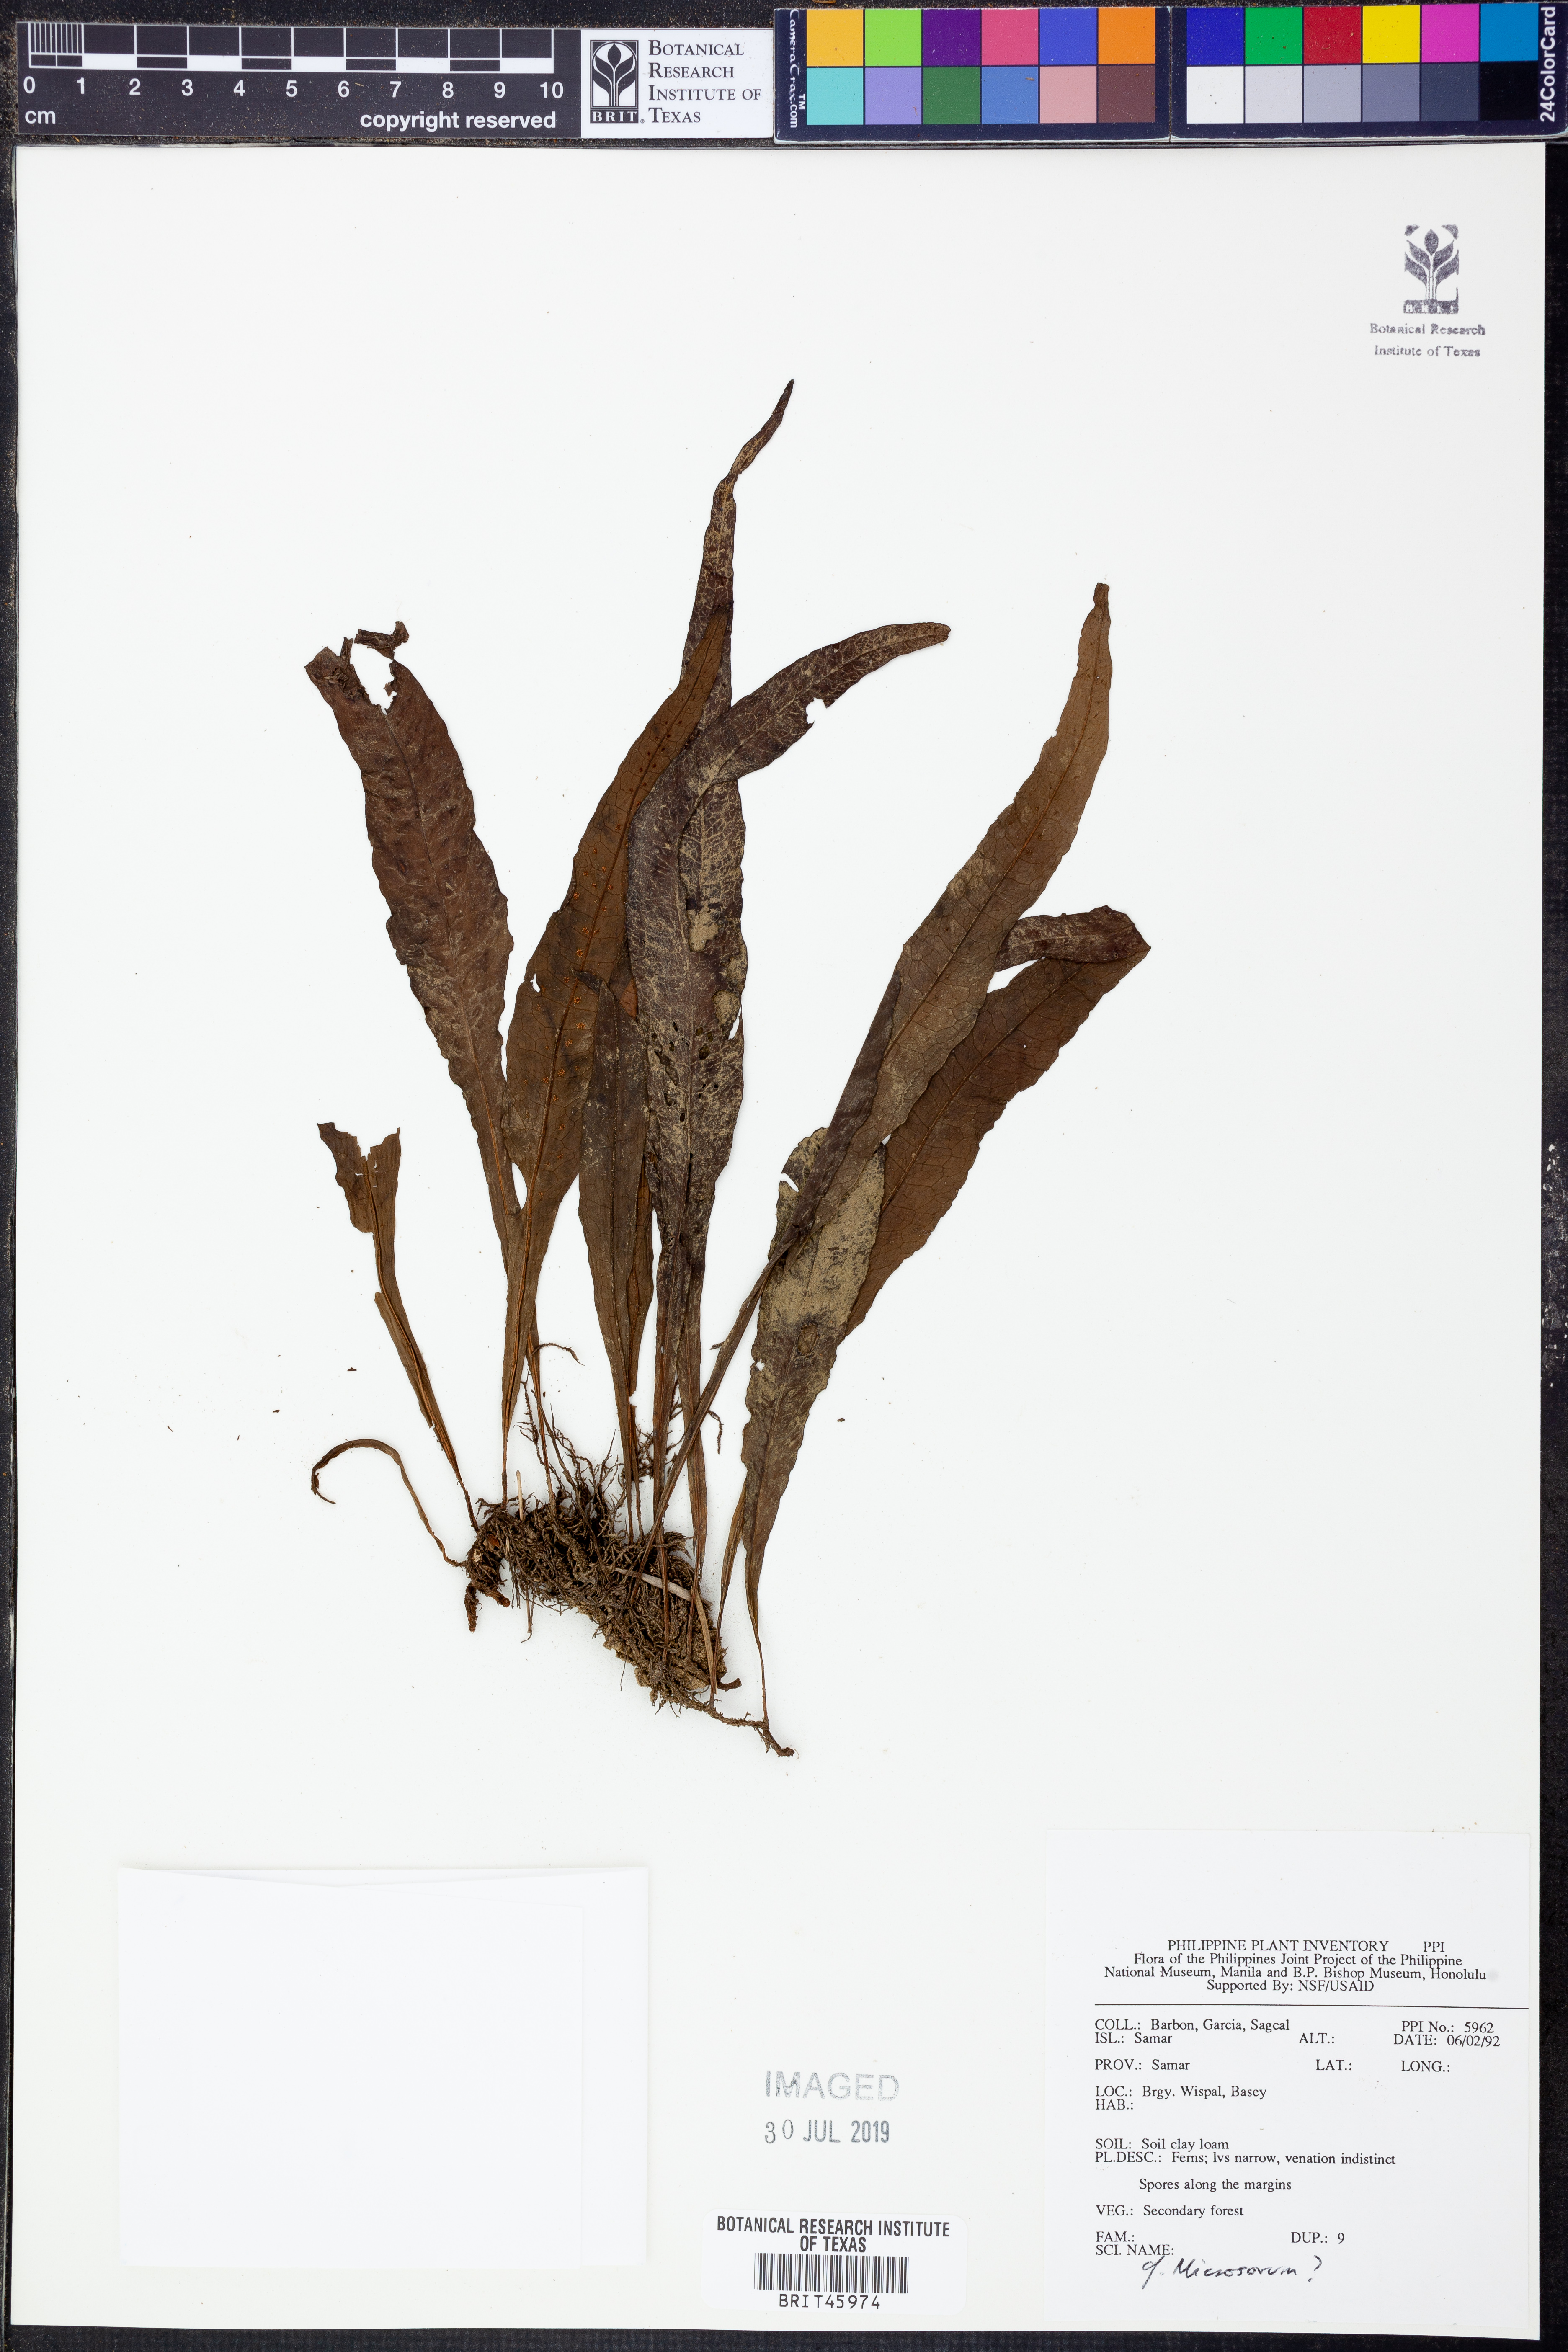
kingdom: Plantae
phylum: Tracheophyta
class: Polypodiopsida
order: Polypodiales
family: Polypodiaceae
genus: Microsorum
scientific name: Microsorum
